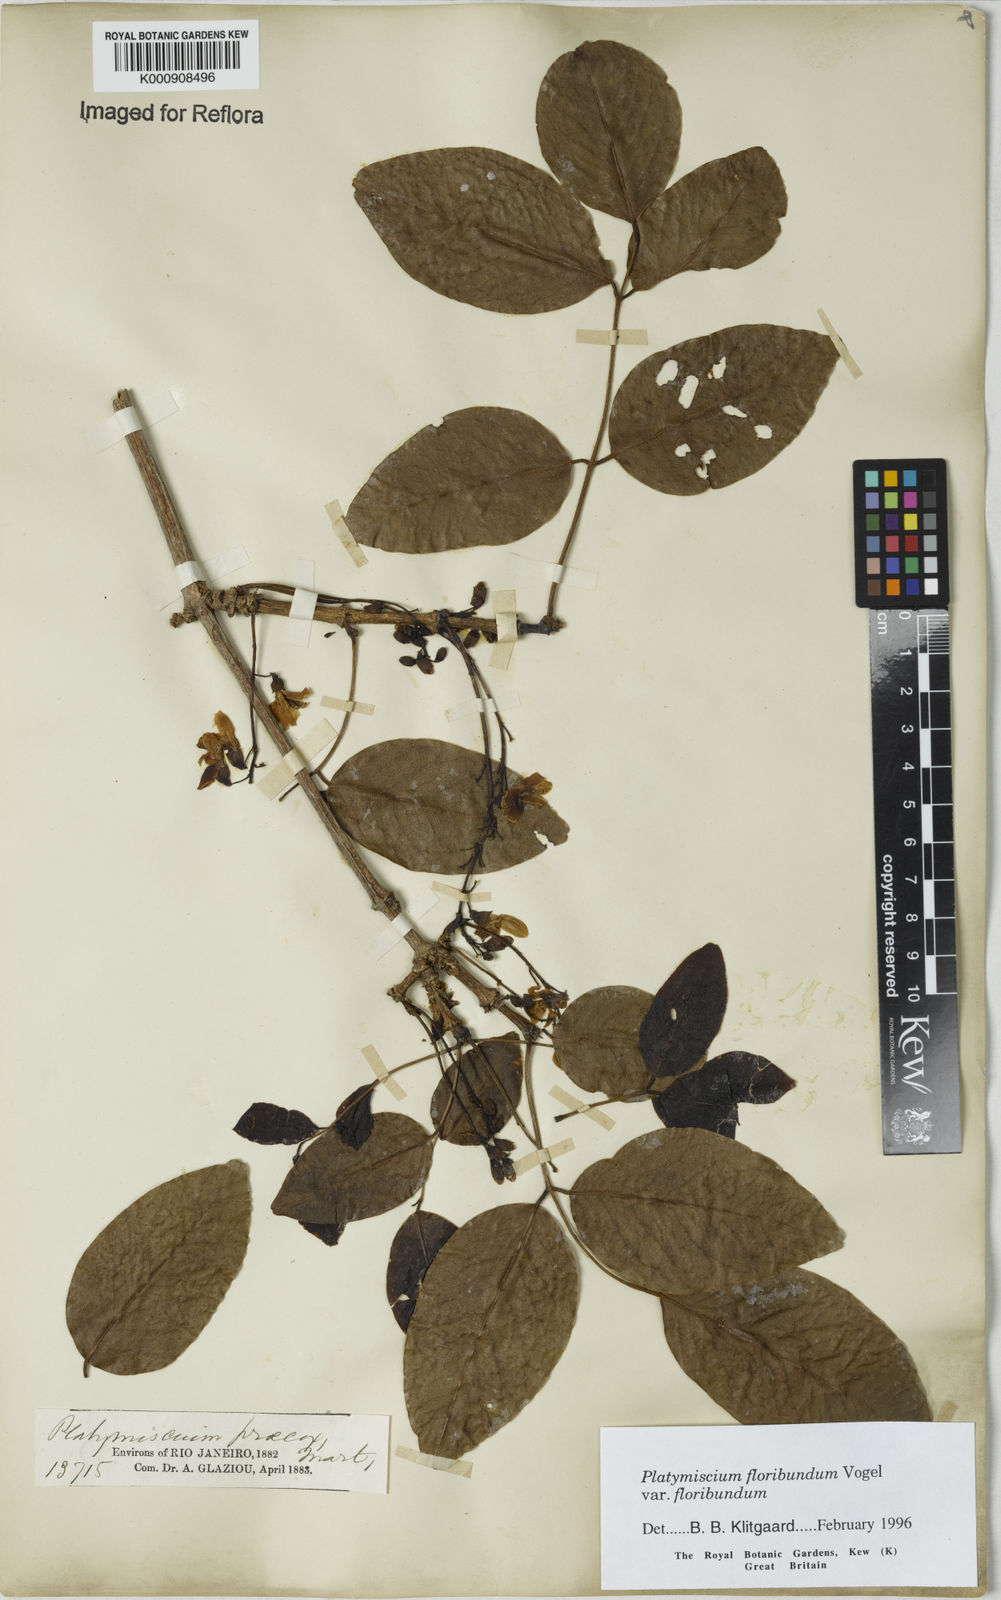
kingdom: Plantae
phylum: Tracheophyta
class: Magnoliopsida
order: Fabales
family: Fabaceae
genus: Platymiscium
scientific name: Platymiscium floribundum
